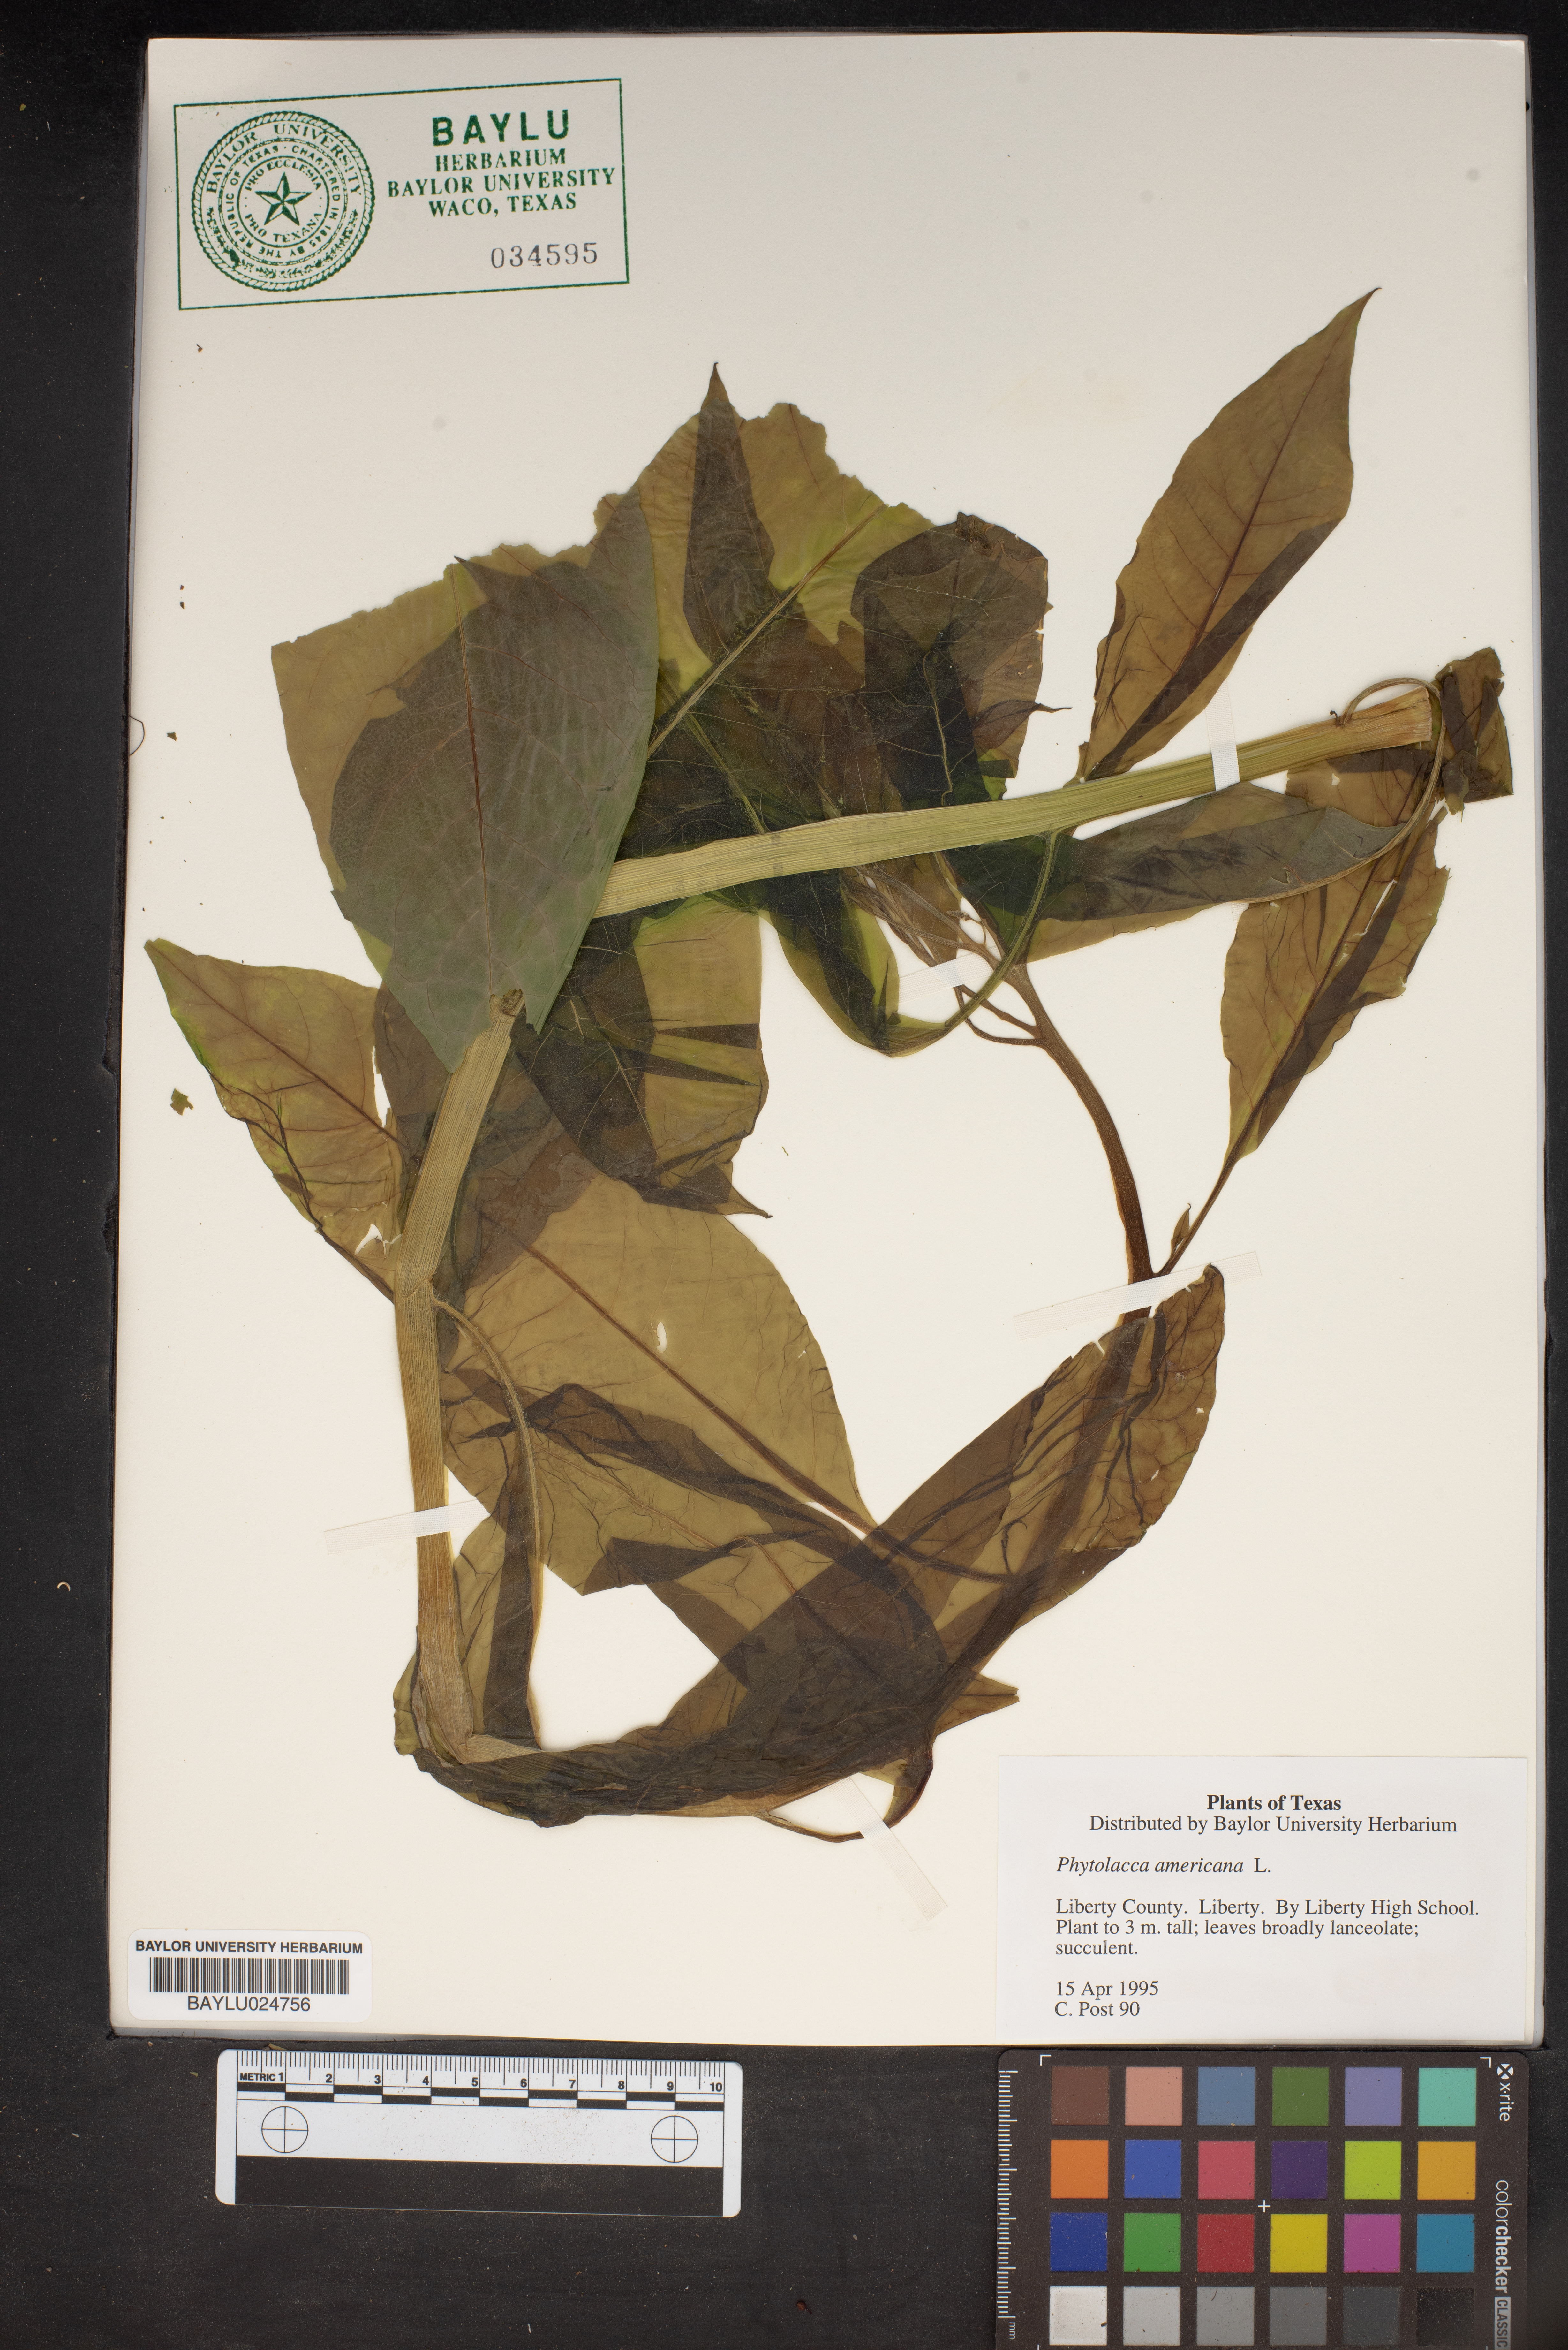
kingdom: Plantae
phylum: Tracheophyta
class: Magnoliopsida
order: Caryophyllales
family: Phytolaccaceae
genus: Phytolacca
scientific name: Phytolacca americana
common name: American pokeweed
